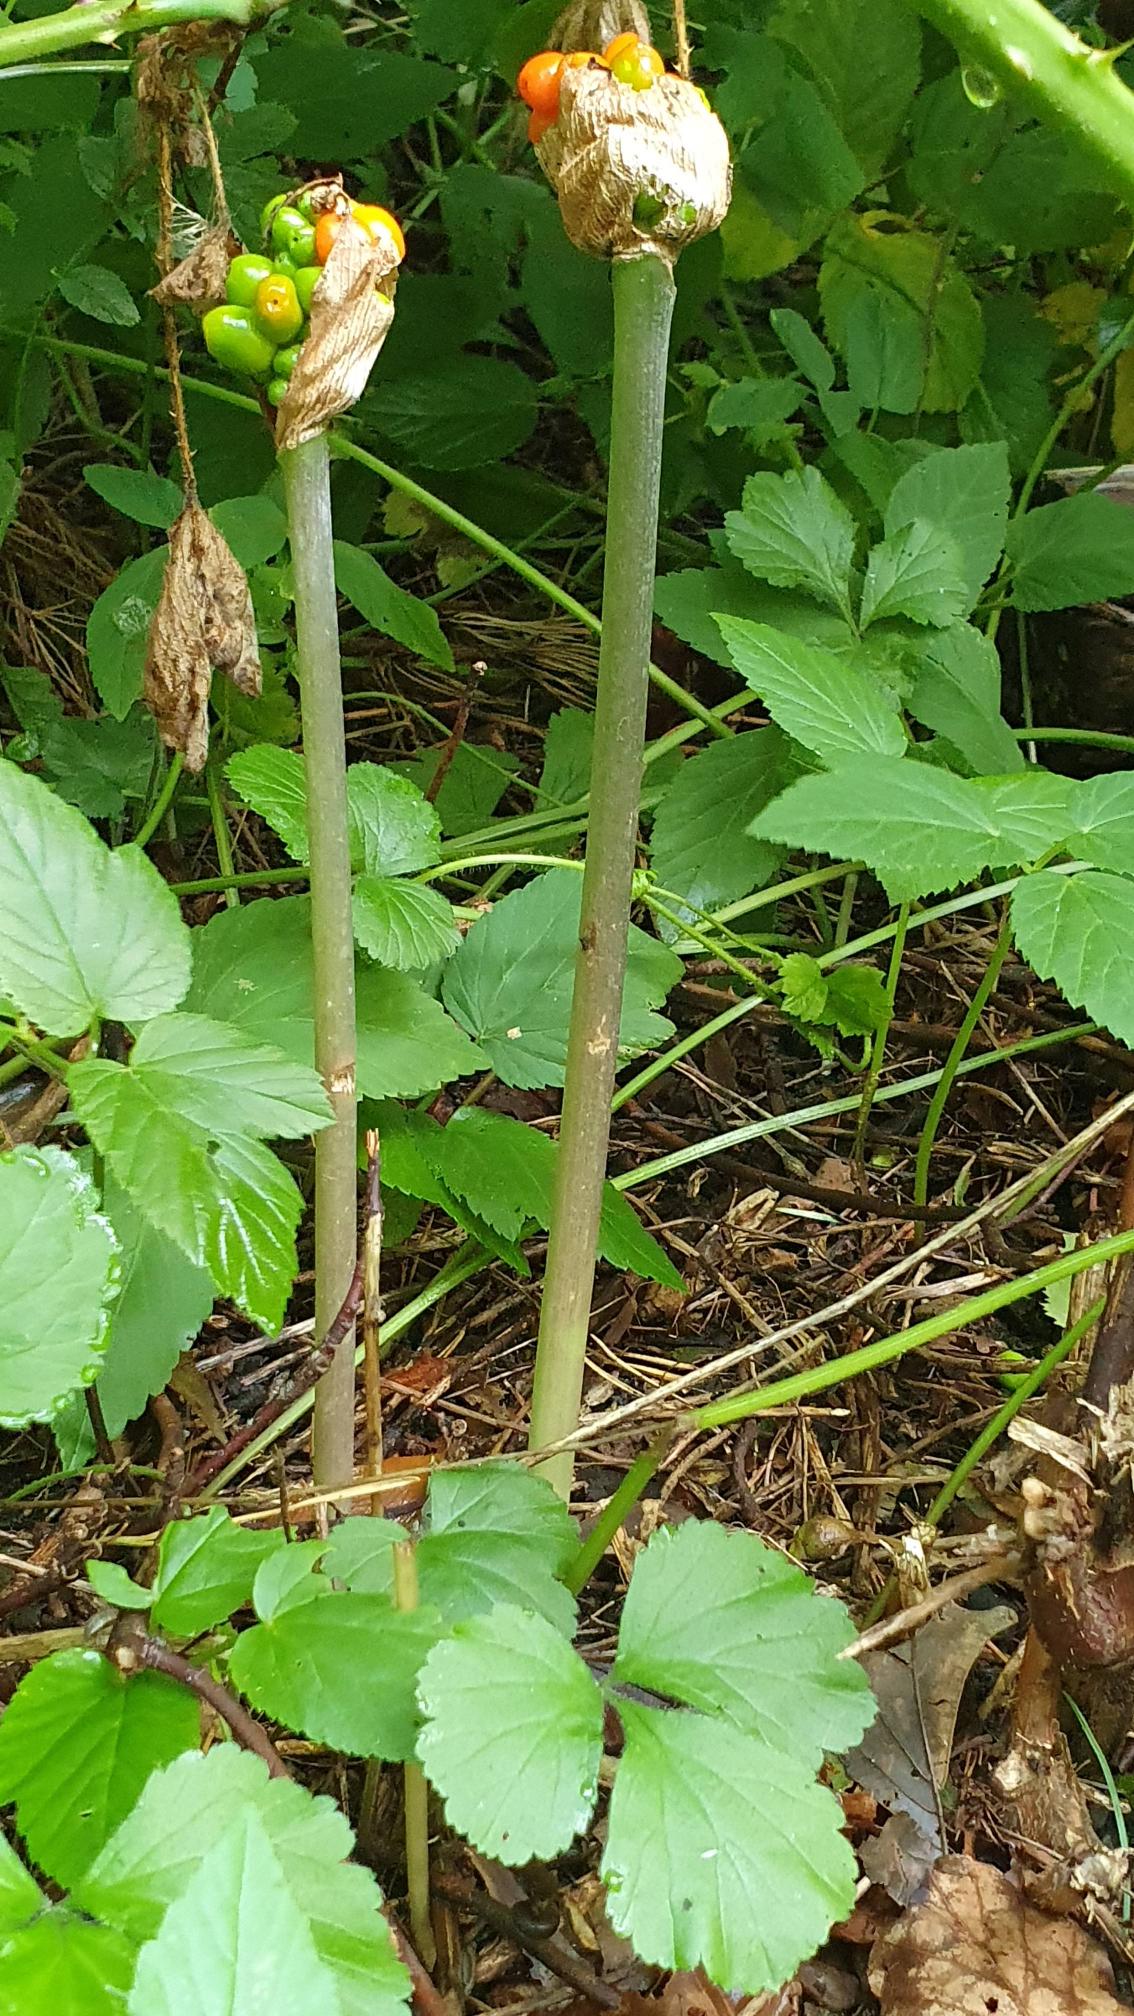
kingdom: Plantae
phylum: Tracheophyta
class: Magnoliopsida
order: Apiales
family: Apiaceae
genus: Aegopodium
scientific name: Aegopodium podagraria
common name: Skvalderkål
